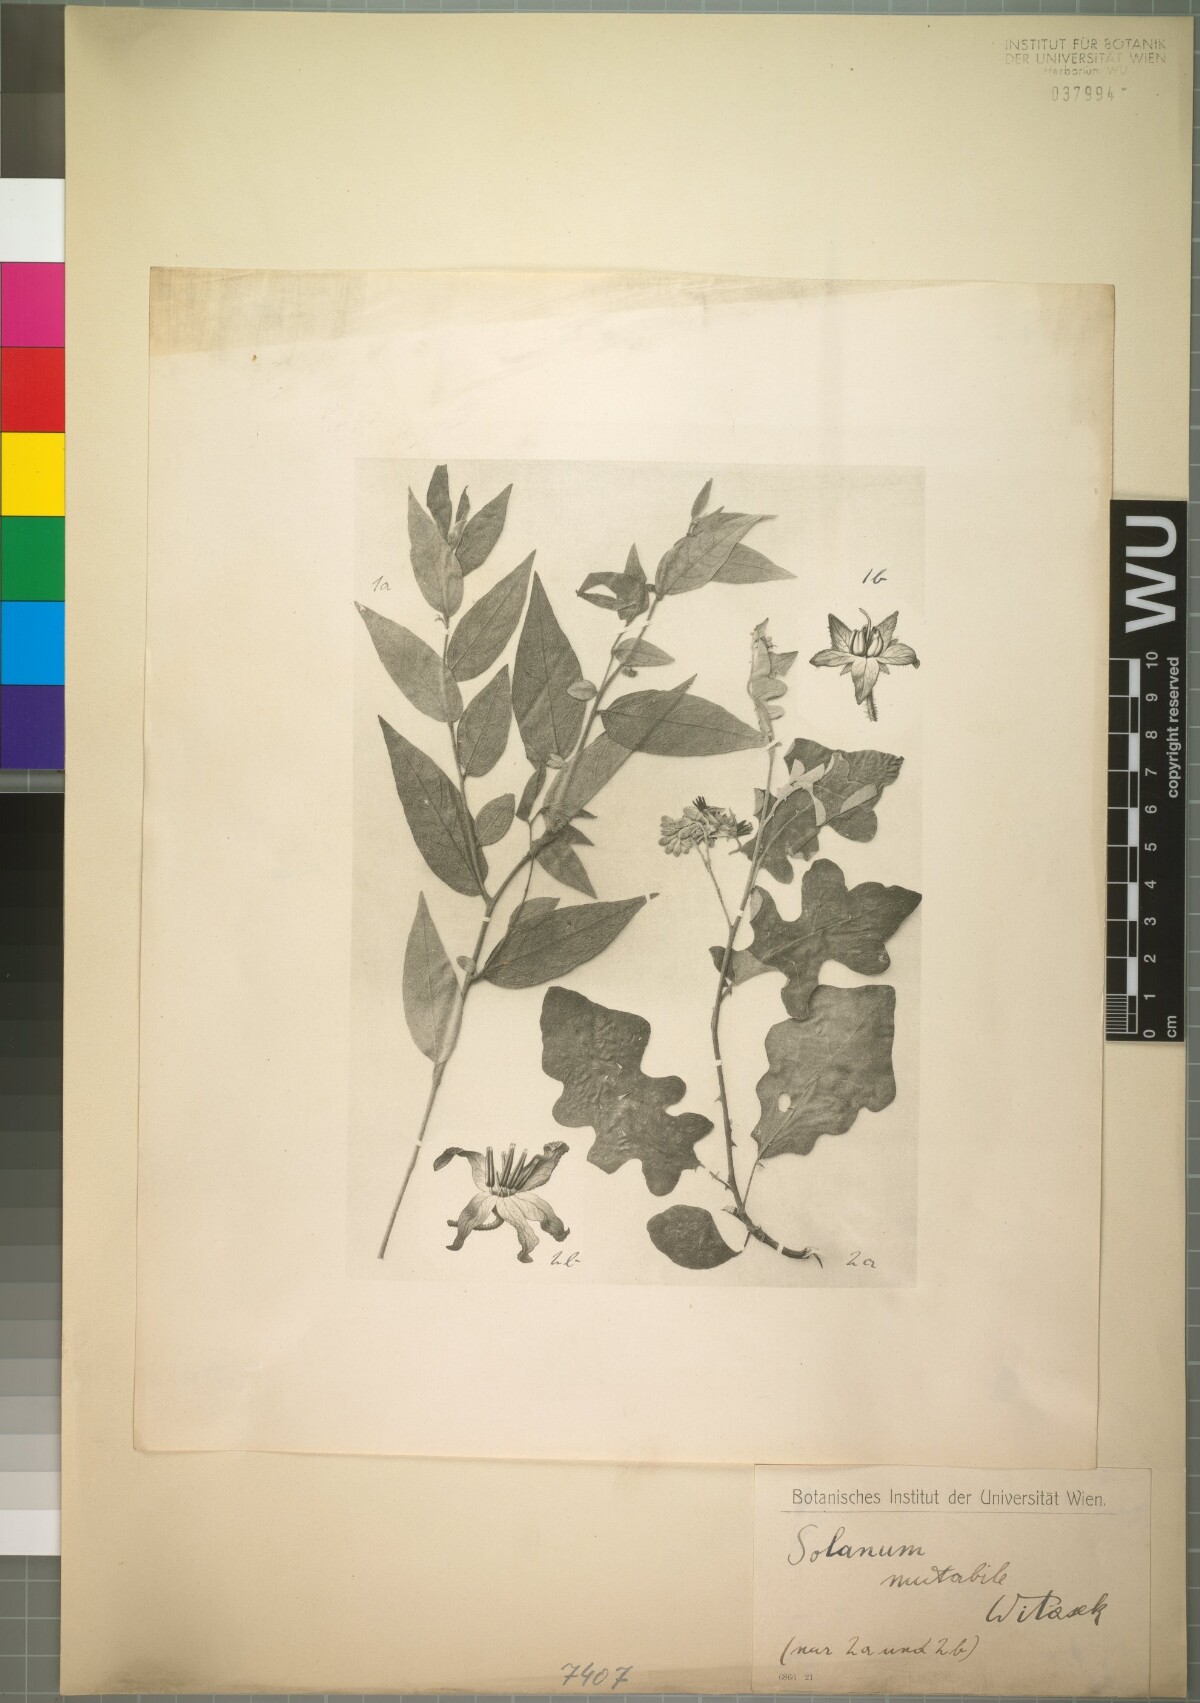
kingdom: Plantae
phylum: Tracheophyta
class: Magnoliopsida
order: Solanales
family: Solanaceae
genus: Solanum
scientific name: Solanum paniculatum
